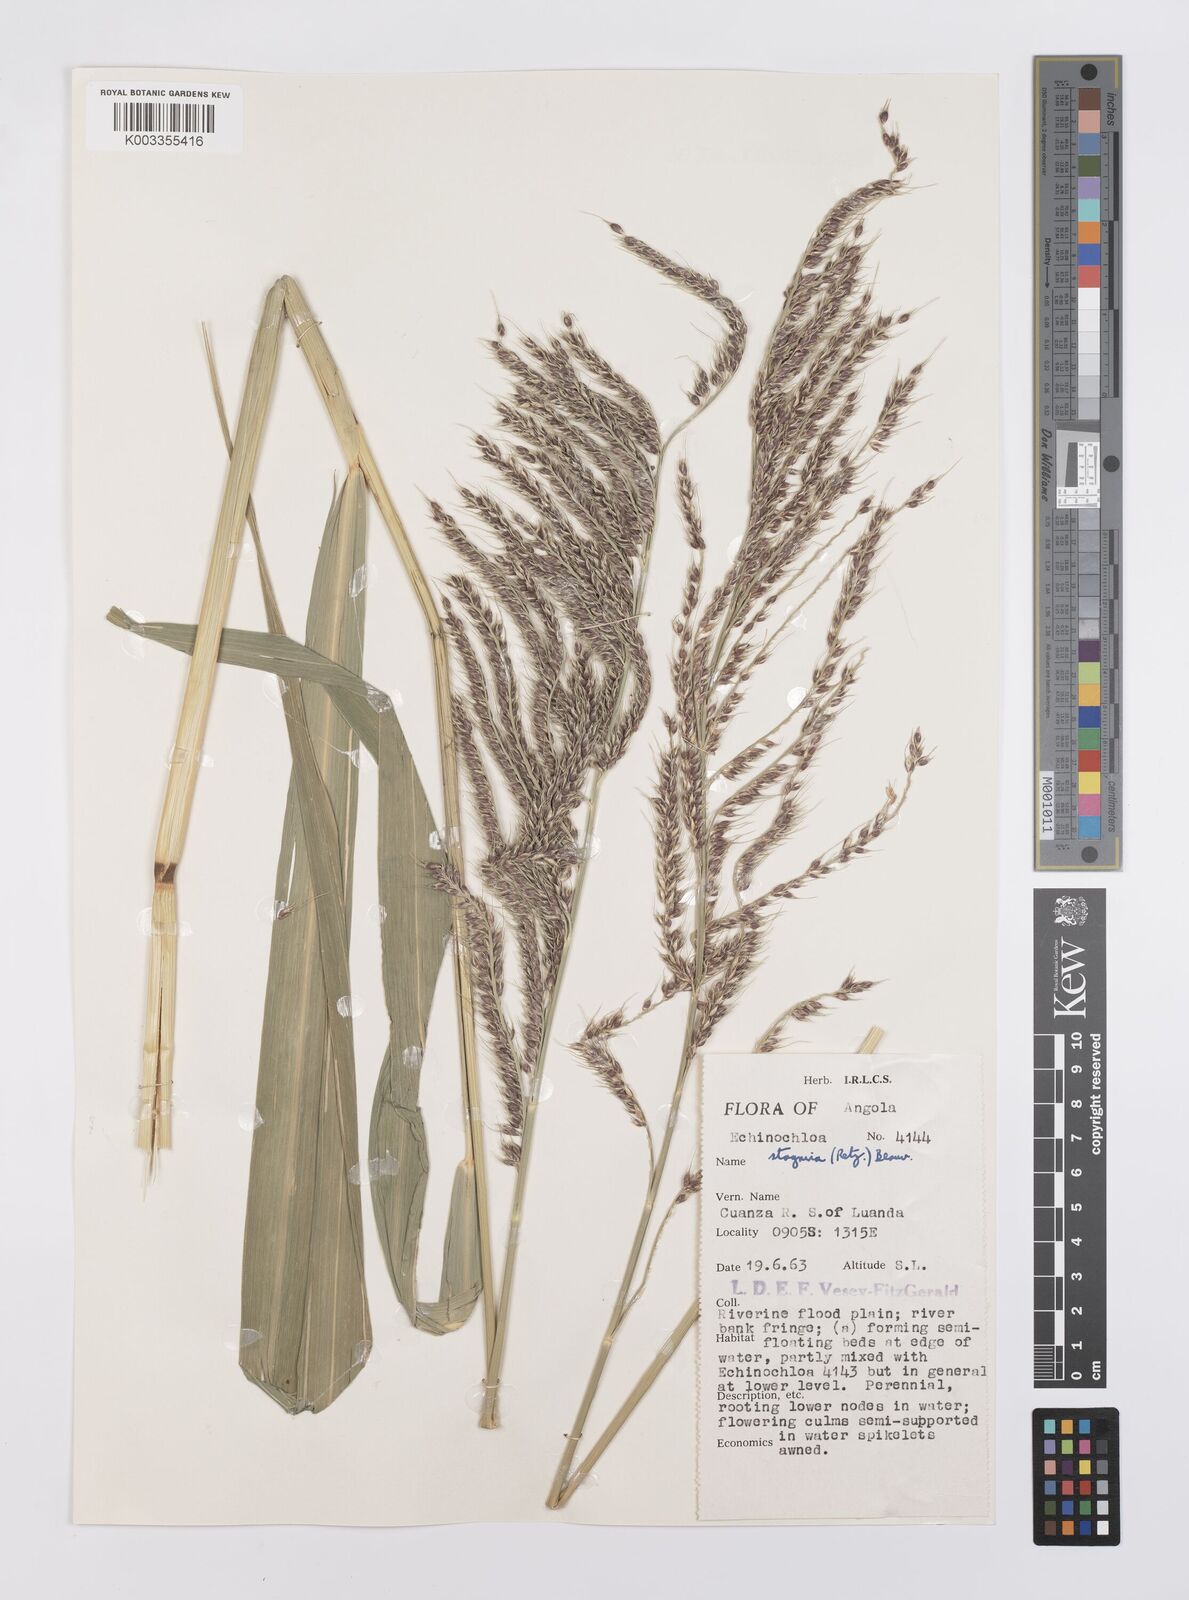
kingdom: Plantae
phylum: Tracheophyta
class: Liliopsida
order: Poales
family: Poaceae
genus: Echinochloa
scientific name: Echinochloa stagnina
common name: Burgu grass
